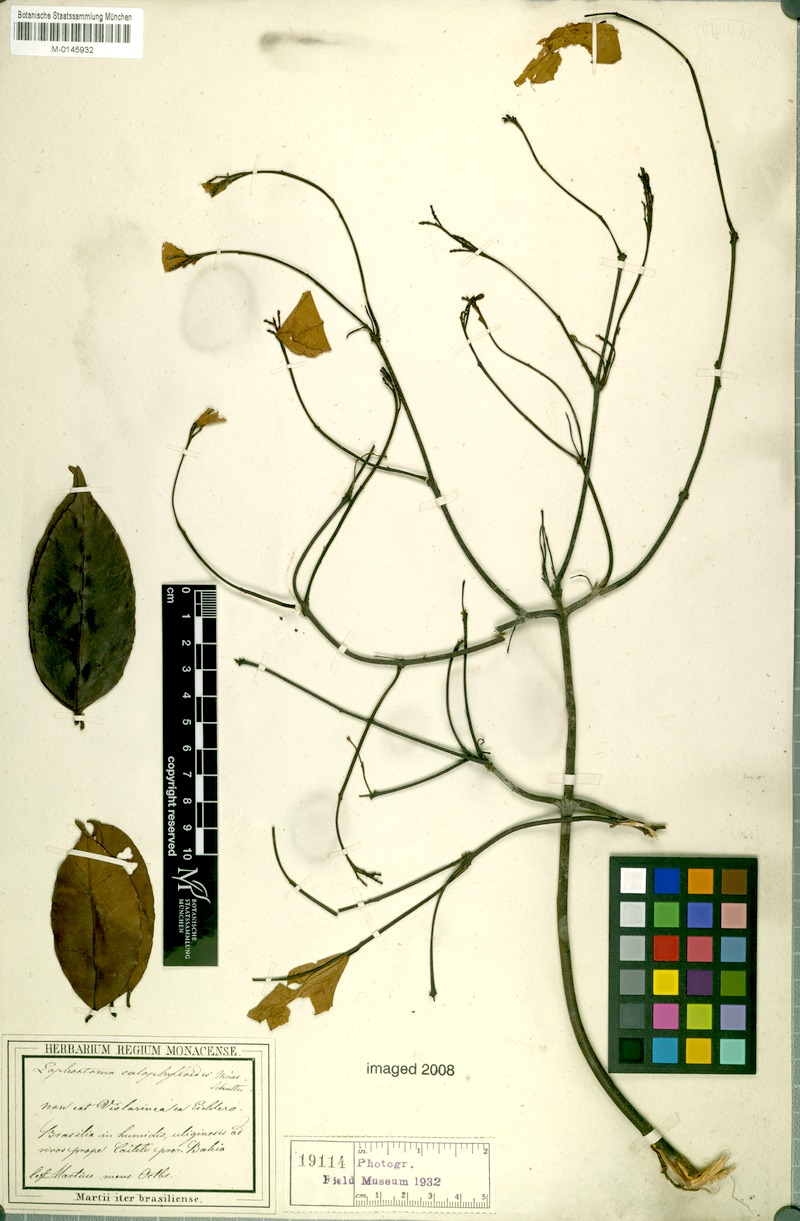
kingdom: Plantae
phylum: Tracheophyta
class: Magnoliopsida
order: Malvales
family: Thymelaeaceae
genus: Lophostoma
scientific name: Lophostoma calophylloides
